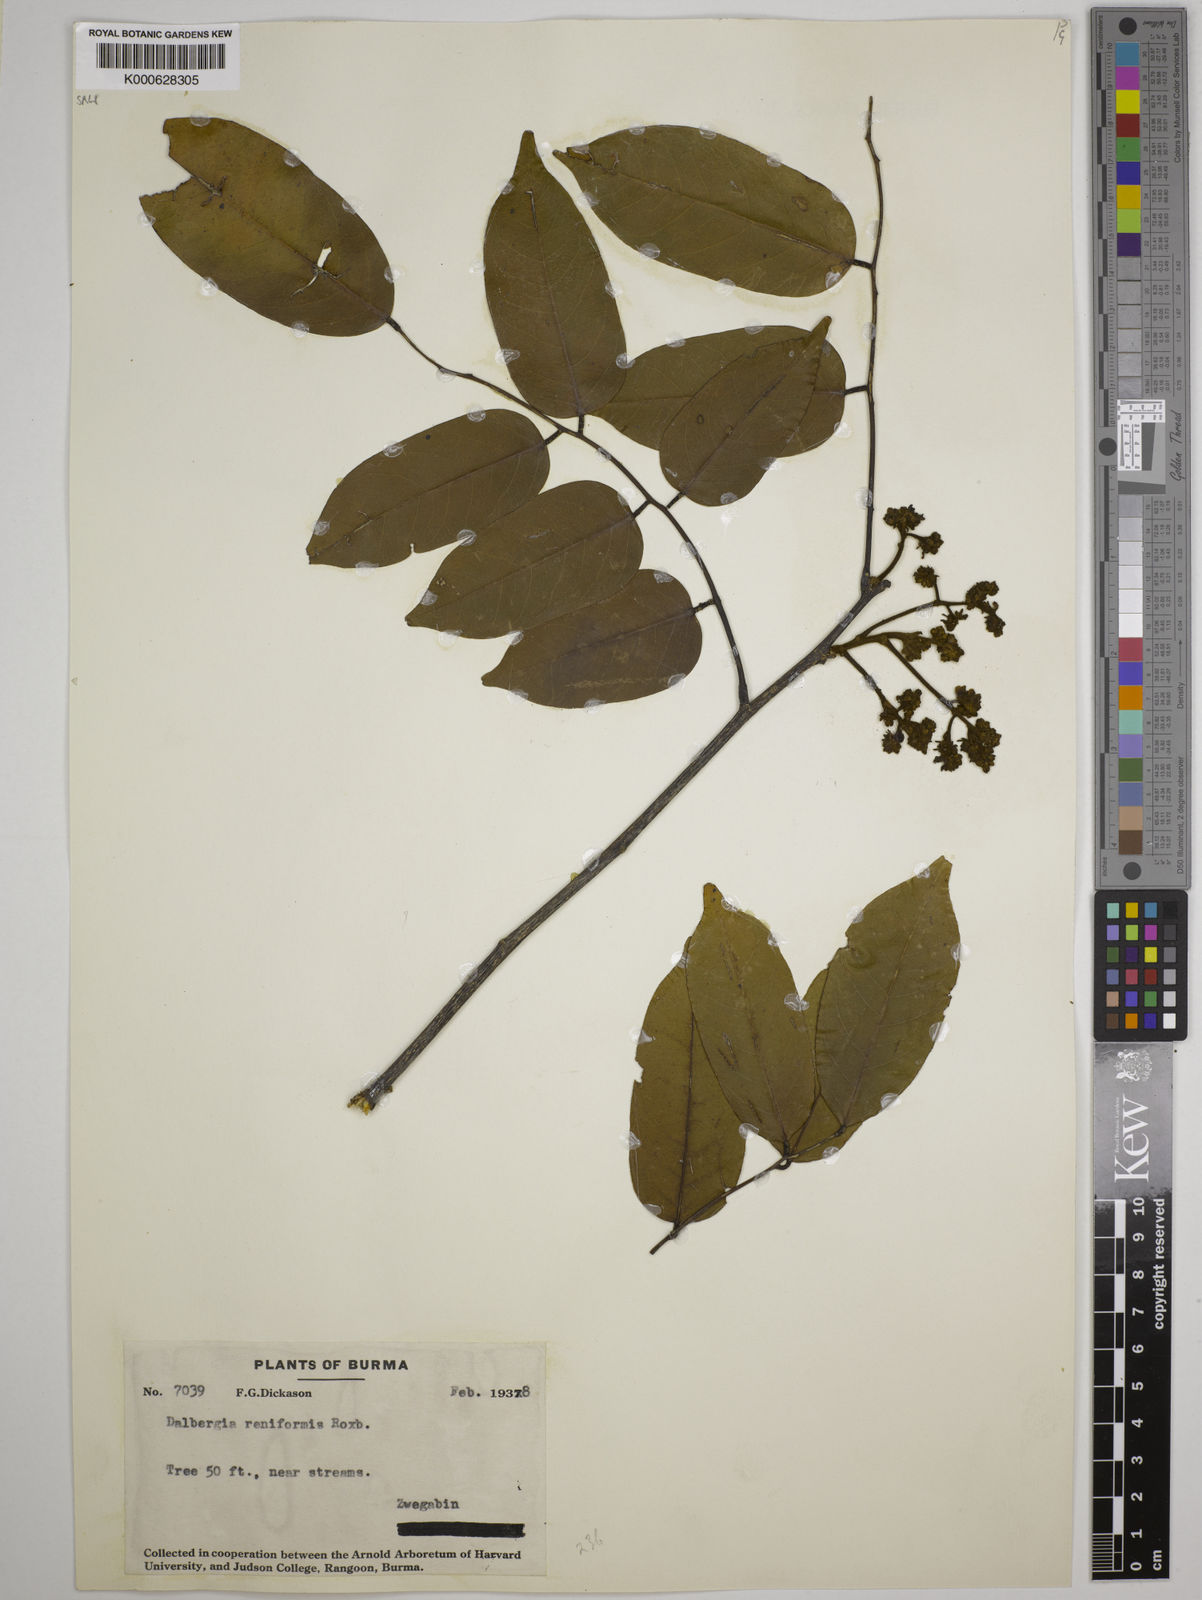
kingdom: Plantae
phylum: Tracheophyta
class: Magnoliopsida
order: Fabales
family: Fabaceae
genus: Dalbergia
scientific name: Dalbergia reniformis
